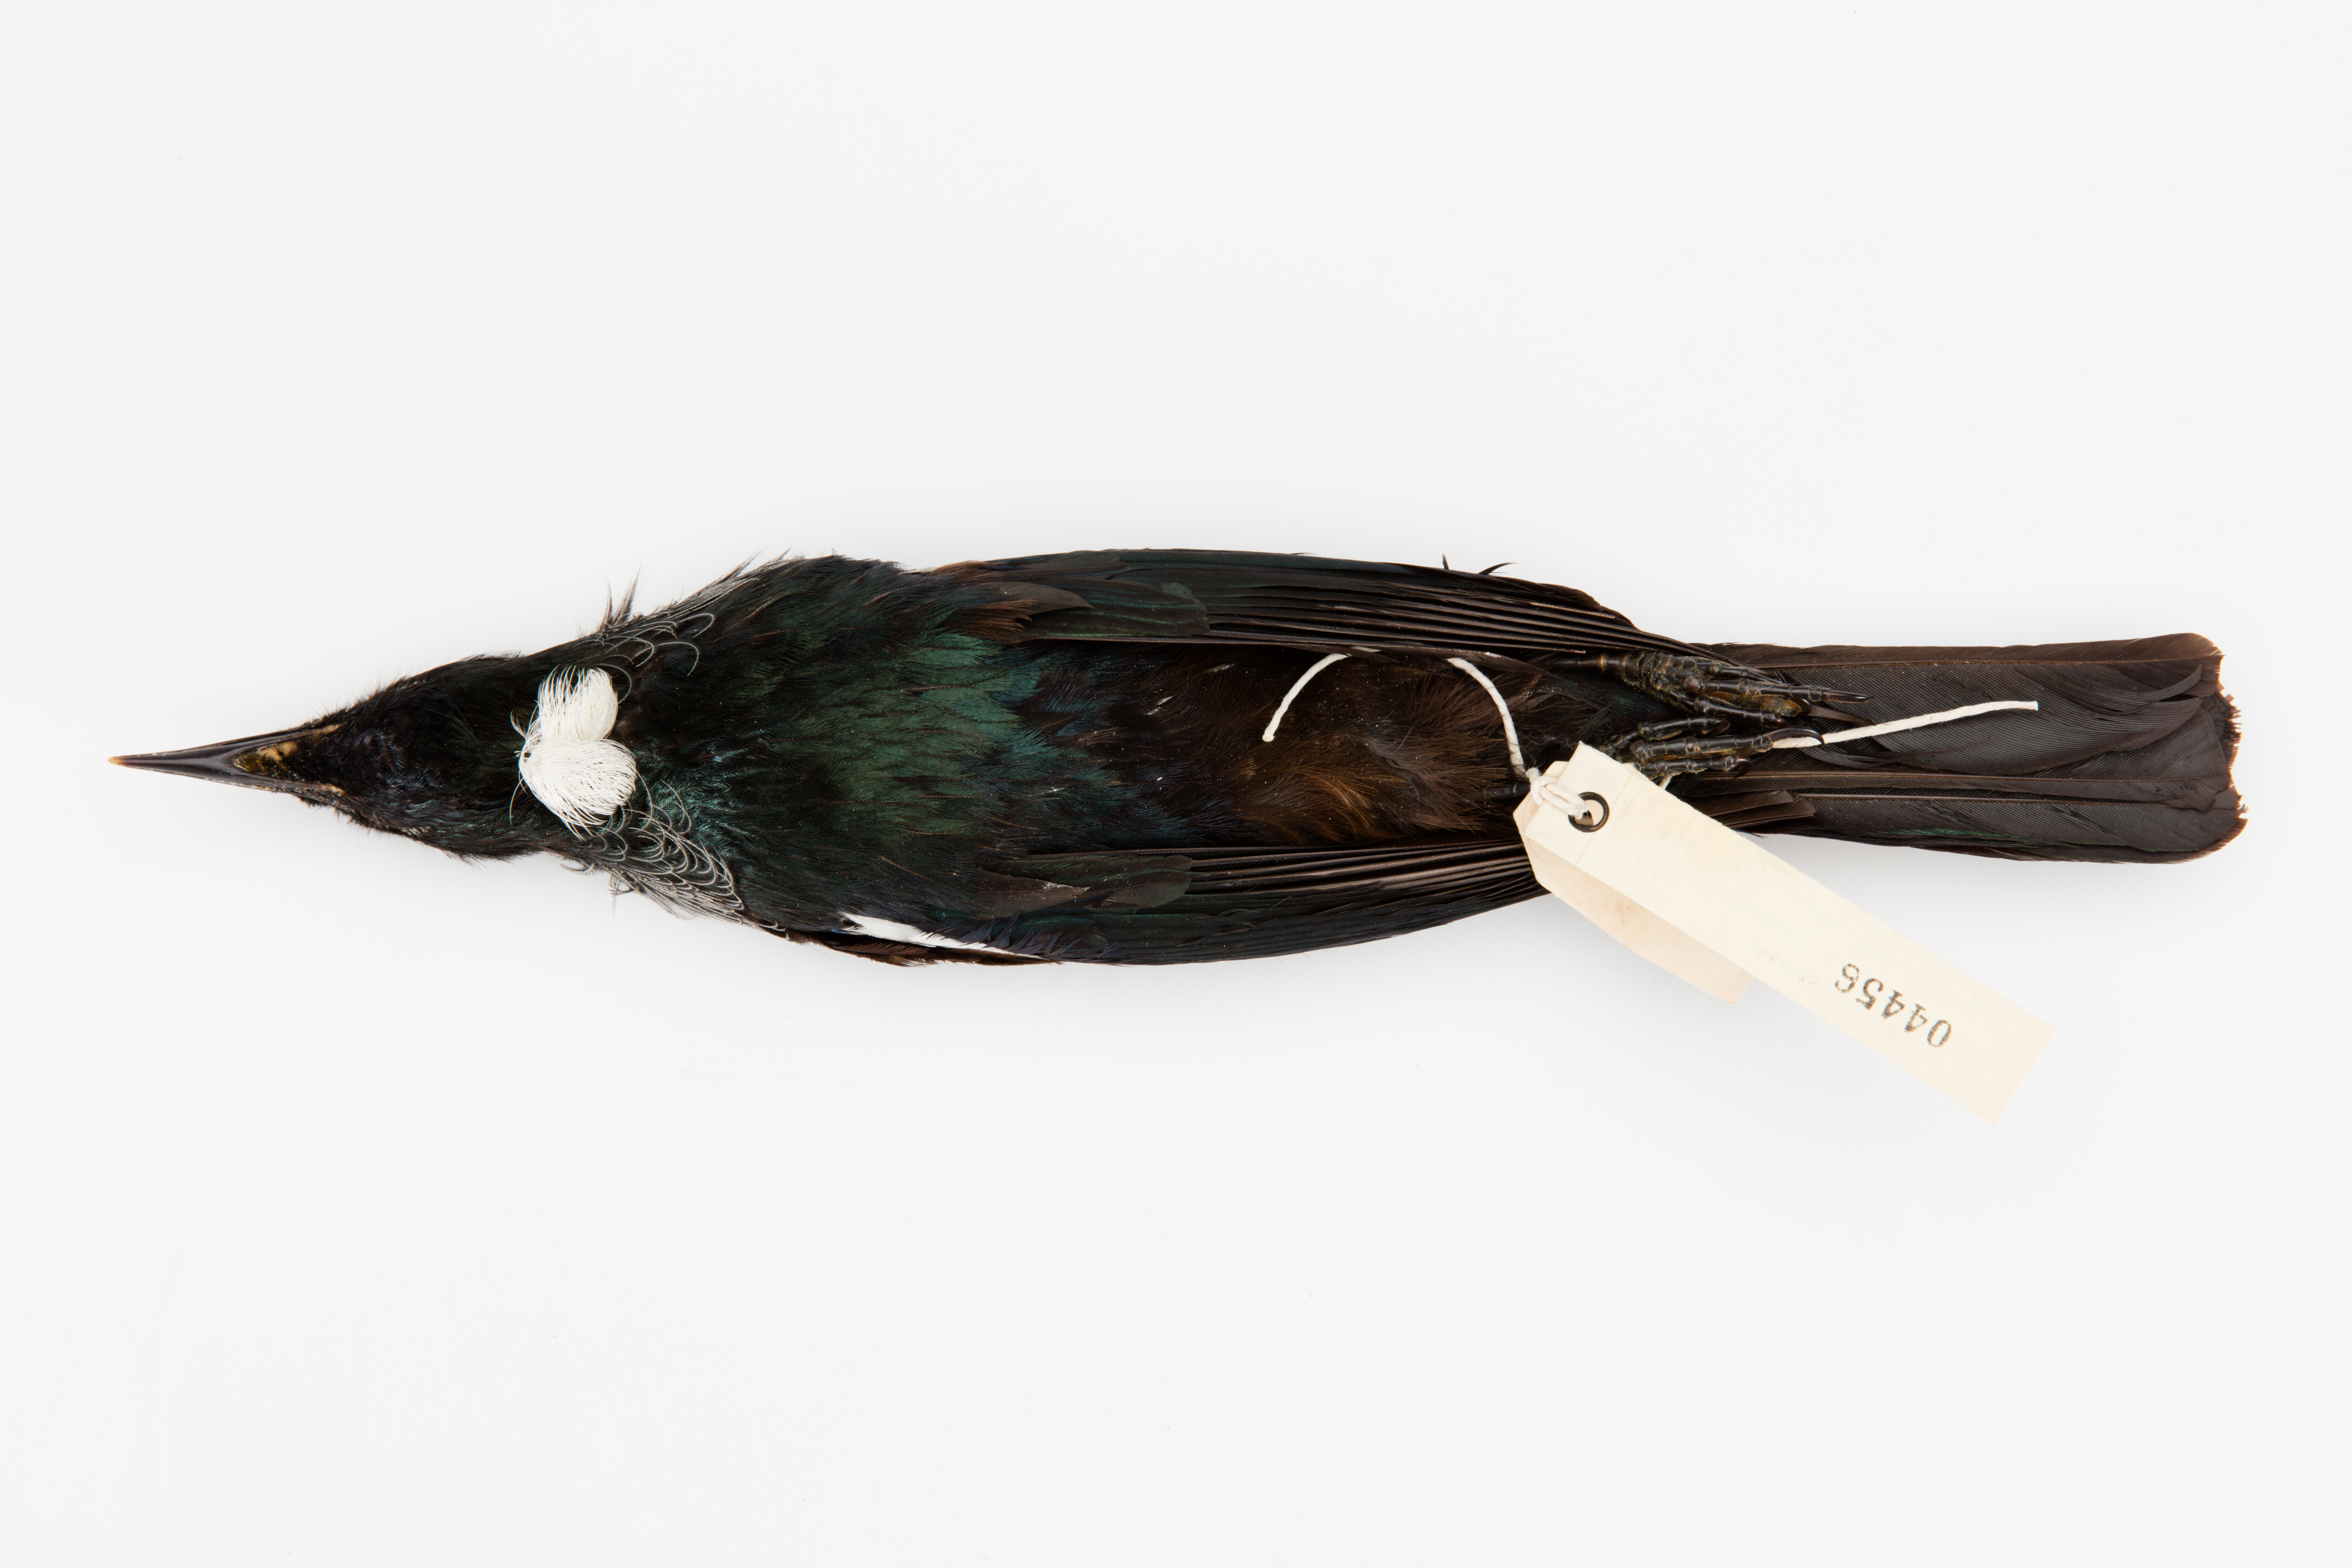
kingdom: Animalia
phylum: Chordata
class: Aves
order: Passeriformes
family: Meliphagidae
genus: Prosthemadera
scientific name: Prosthemadera novaeseelandiae
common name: Tui
